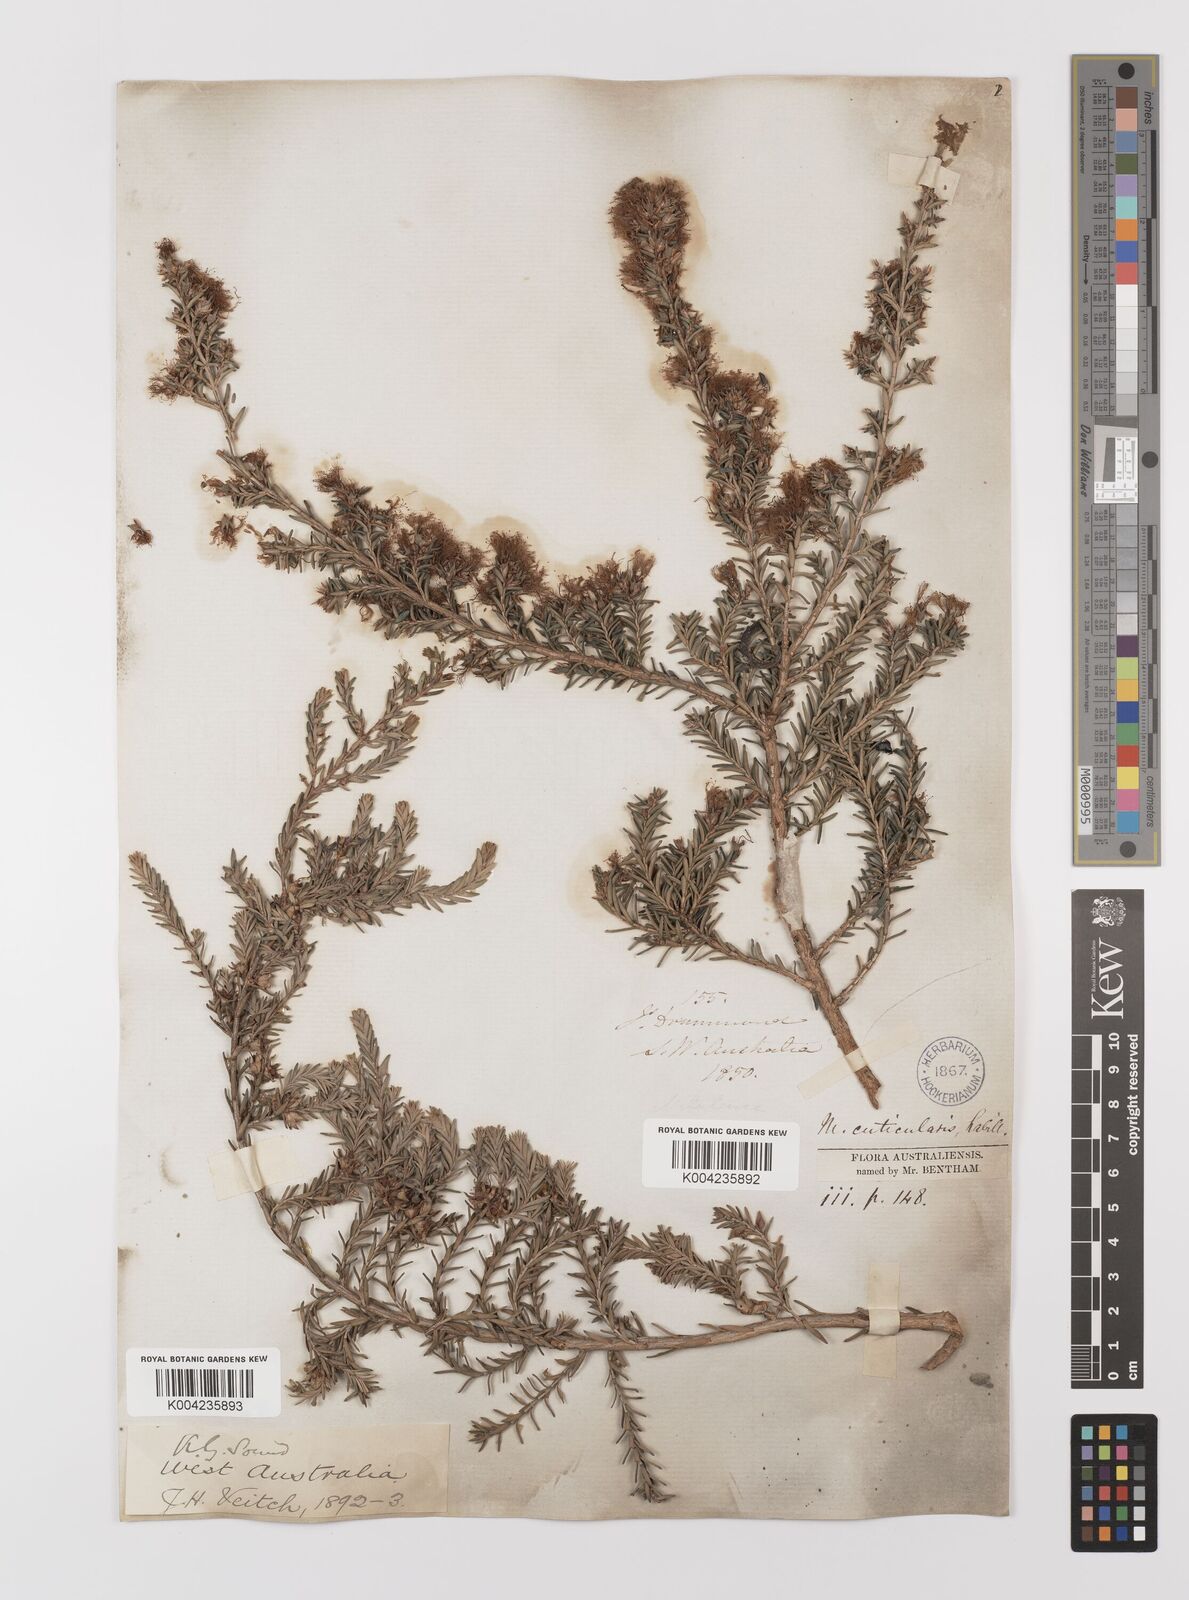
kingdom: Plantae
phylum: Tracheophyta
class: Magnoliopsida
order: Myrtales
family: Myrtaceae
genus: Melaleuca
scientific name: Melaleuca cuticularis
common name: Saltwater paperbark
